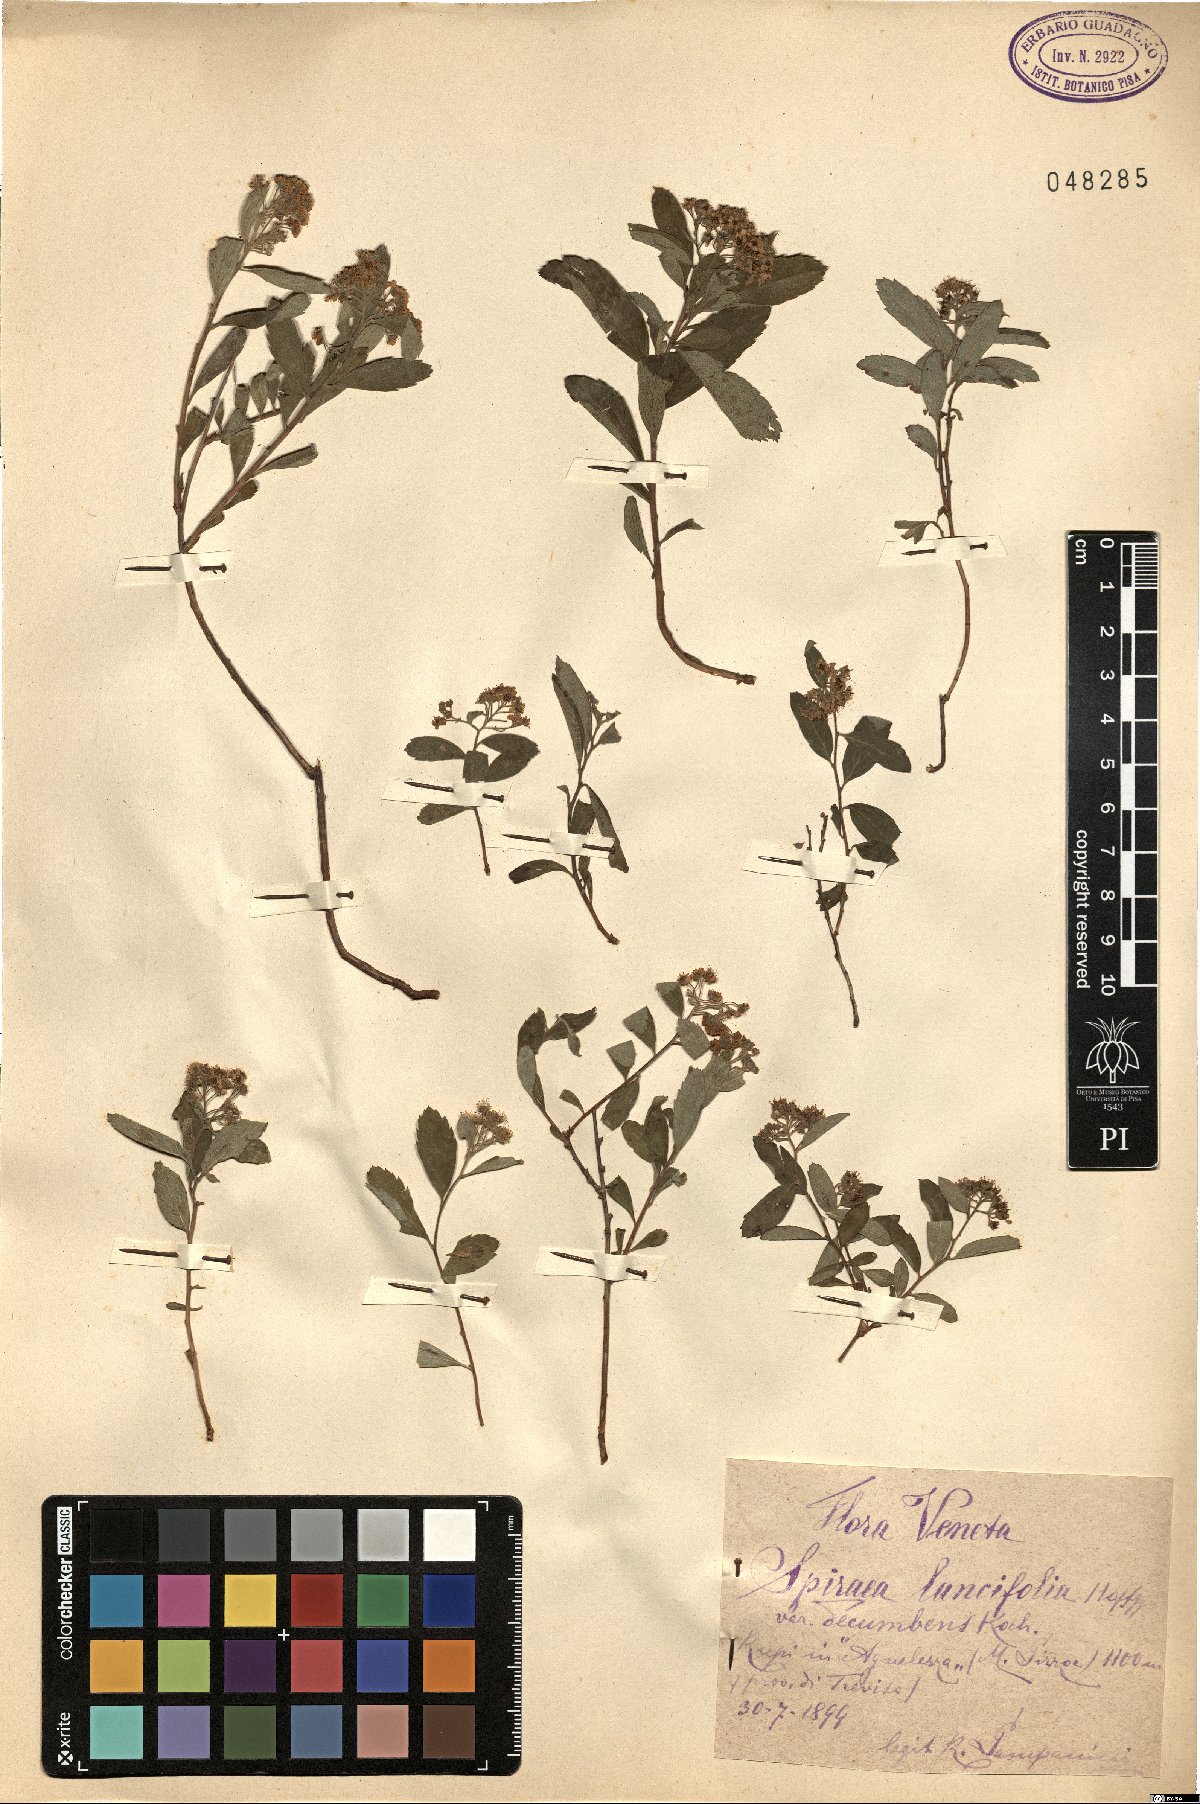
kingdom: Plantae
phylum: Tracheophyta
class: Magnoliopsida
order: Rosales
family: Rosaceae
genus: Spiraea
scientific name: Spiraea decumbens
